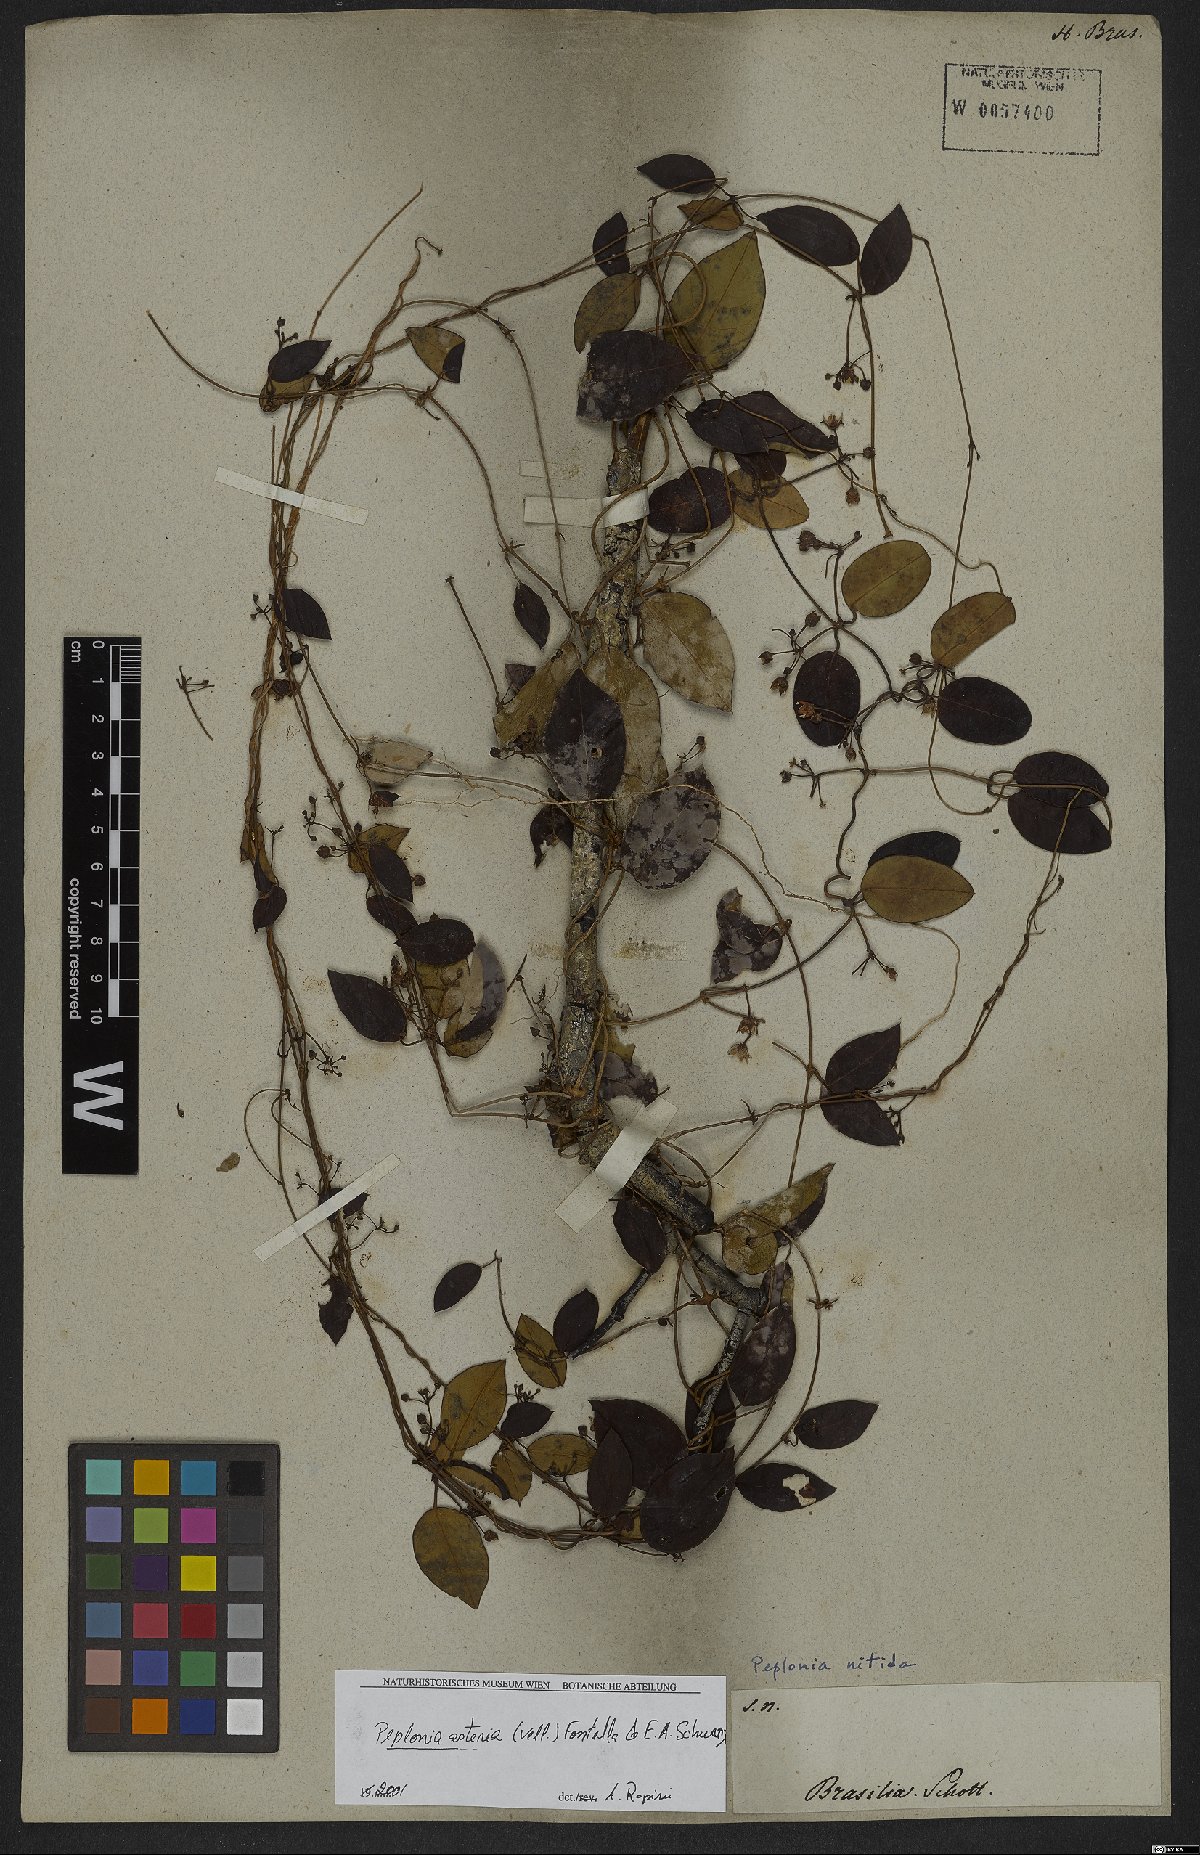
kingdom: Plantae
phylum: Tracheophyta
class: Magnoliopsida
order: Gentianales
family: Apocynaceae
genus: Peplonia
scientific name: Peplonia asteria
